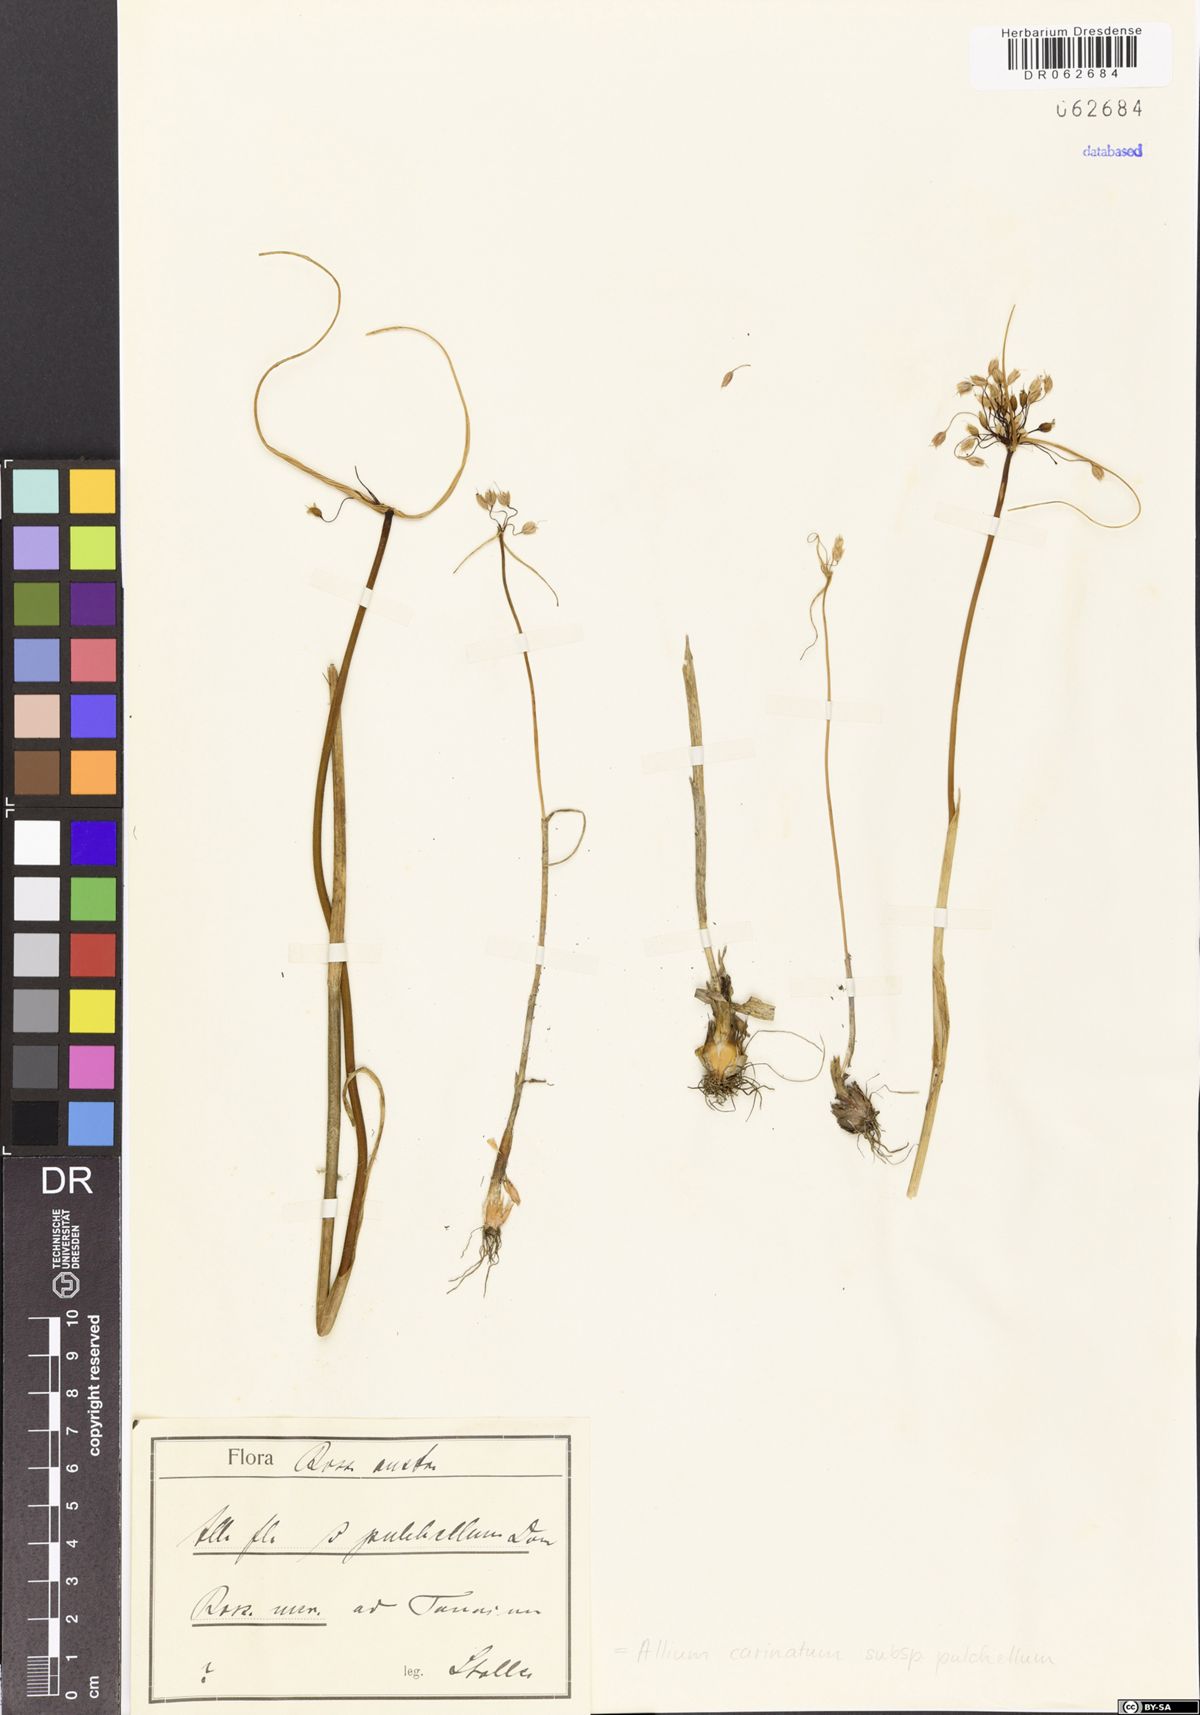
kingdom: Plantae
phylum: Tracheophyta
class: Liliopsida
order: Asparagales
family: Amaryllidaceae
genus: Allium
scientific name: Allium coloratum
